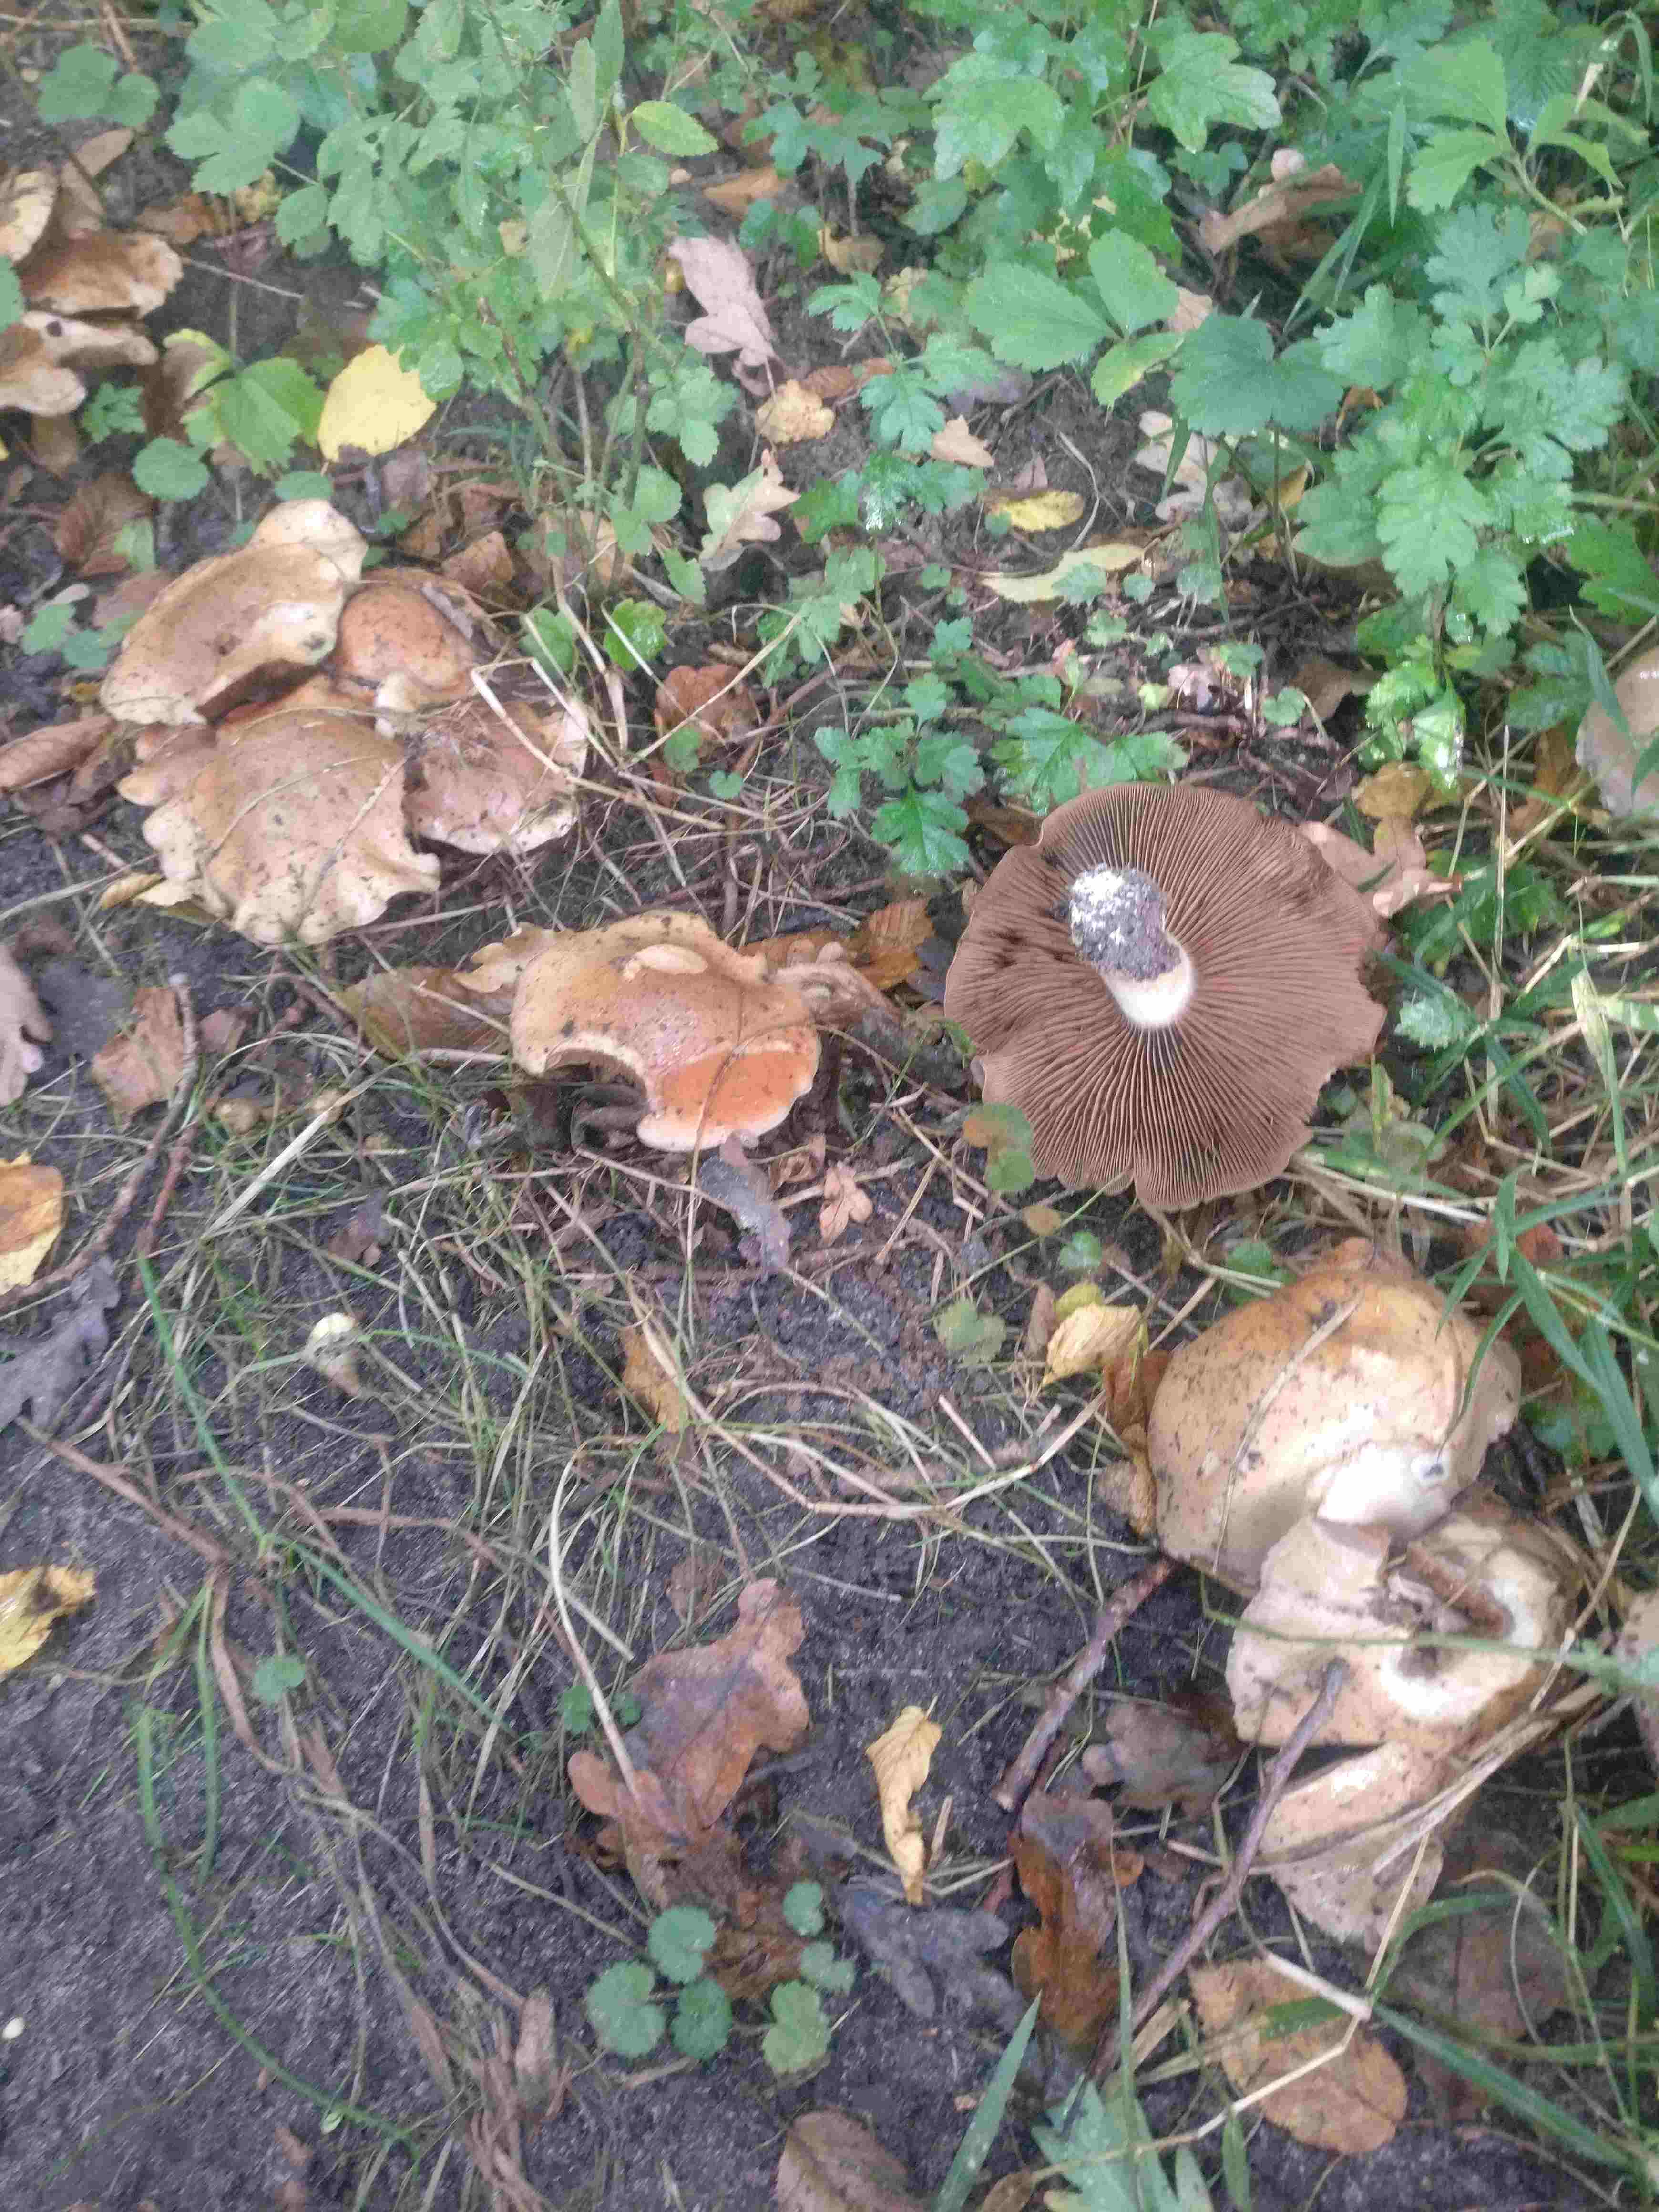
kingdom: Fungi
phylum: Basidiomycota
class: Agaricomycetes
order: Agaricales
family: Hymenogastraceae
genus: Hebeloma
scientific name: Hebeloma
